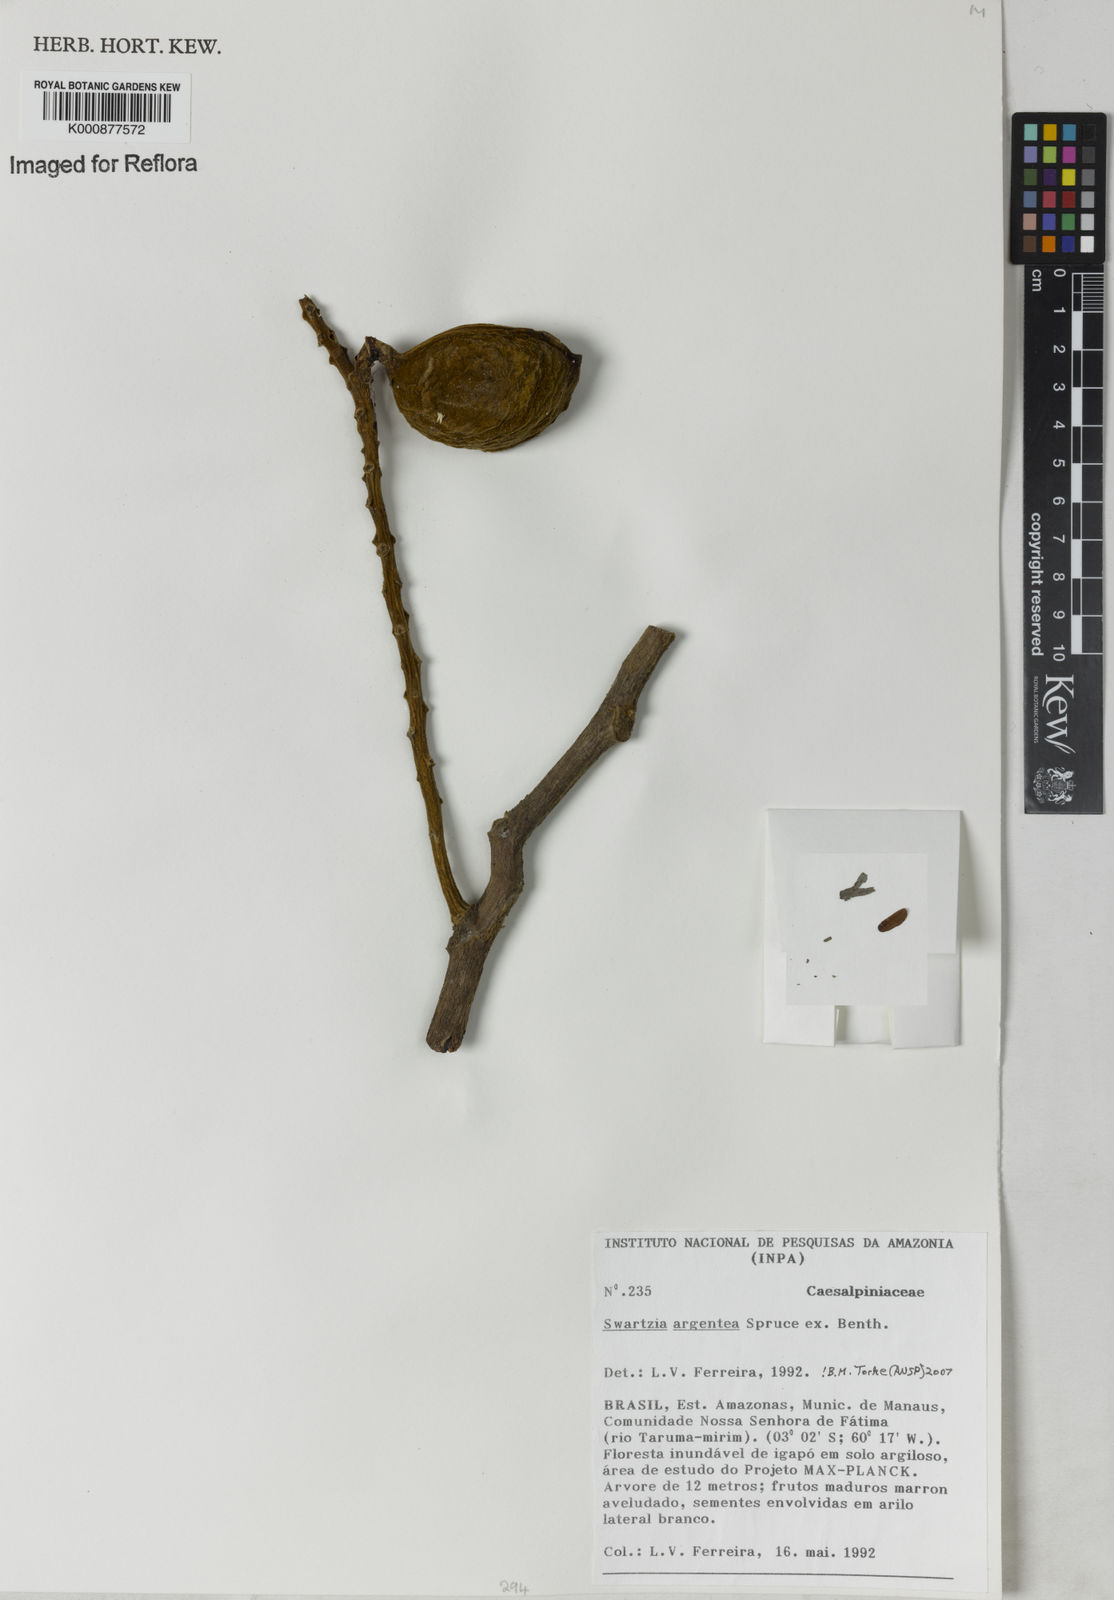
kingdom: Plantae
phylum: Tracheophyta
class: Magnoliopsida
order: Fabales
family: Fabaceae
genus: Swartzia
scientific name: Swartzia argentea
